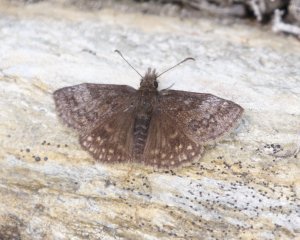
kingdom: Animalia
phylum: Arthropoda
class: Insecta
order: Lepidoptera
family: Hesperiidae
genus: Erynnis
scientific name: Erynnis icelus
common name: Dreamy Duskywing
